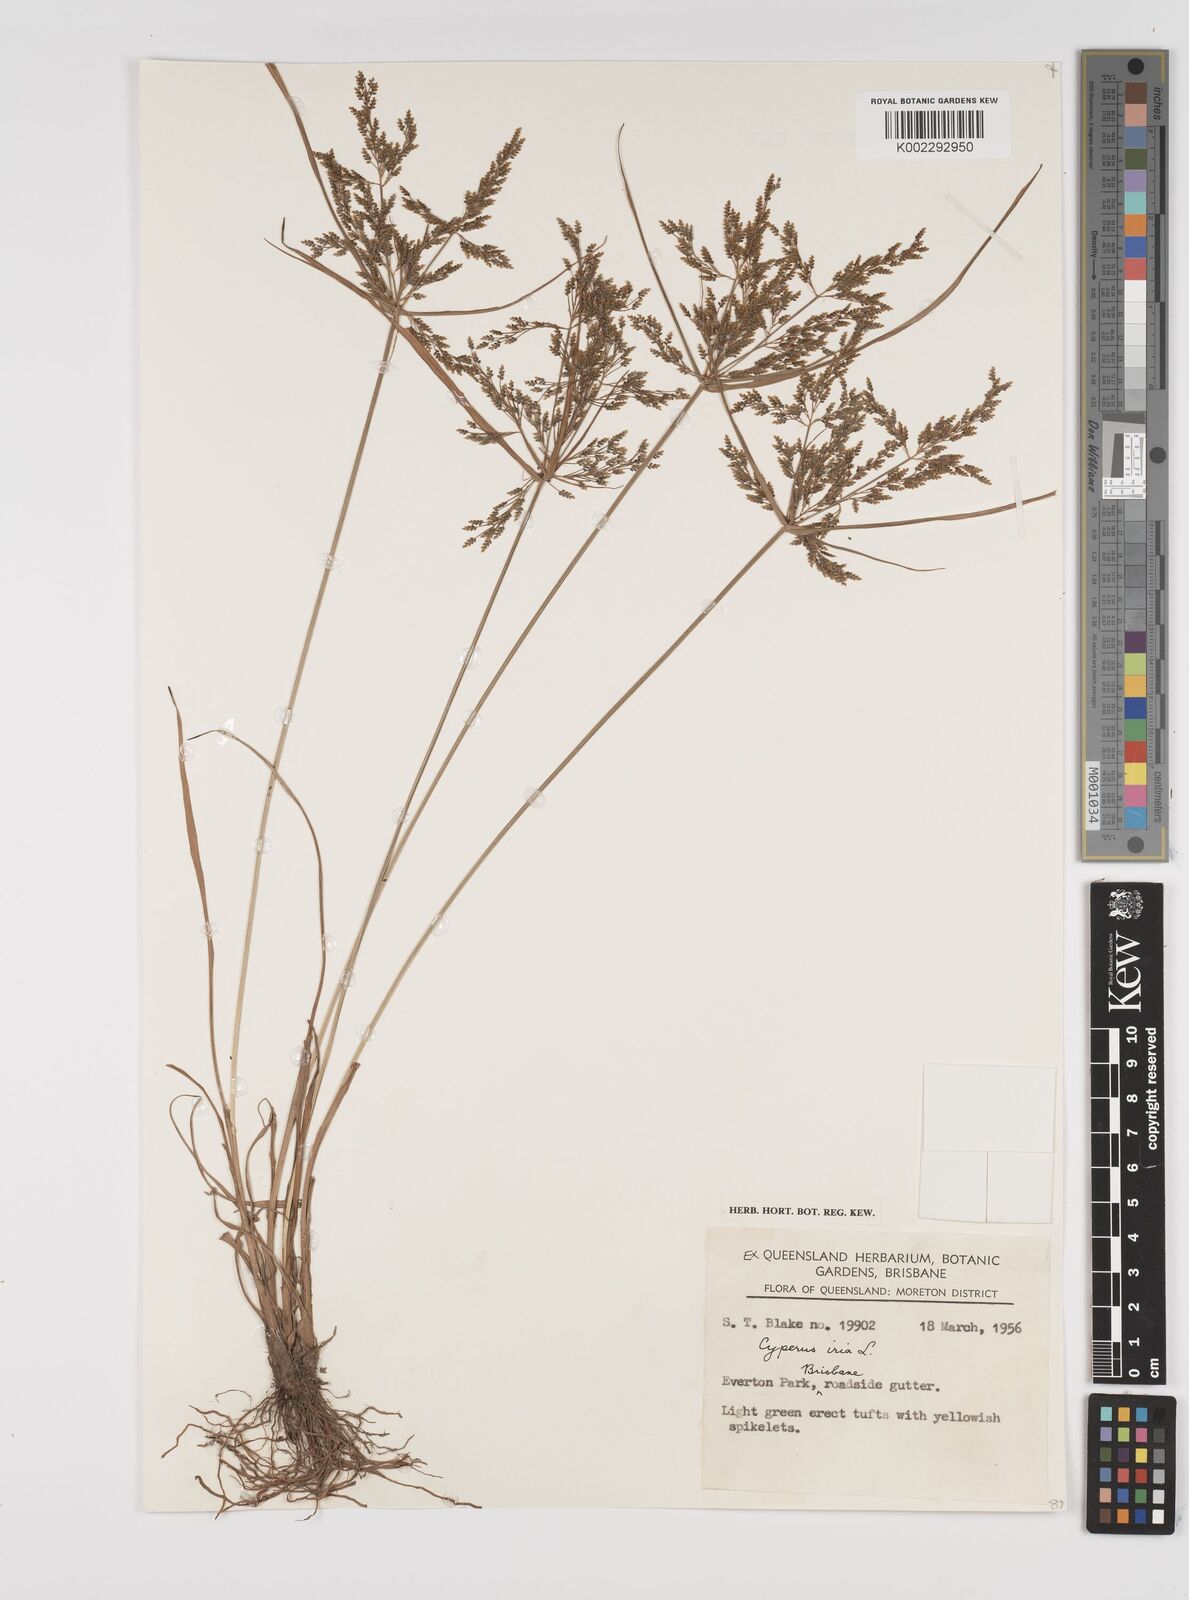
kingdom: Plantae
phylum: Tracheophyta
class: Liliopsida
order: Poales
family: Cyperaceae
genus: Cyperus
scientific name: Cyperus iria
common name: Ricefield flatsedge
